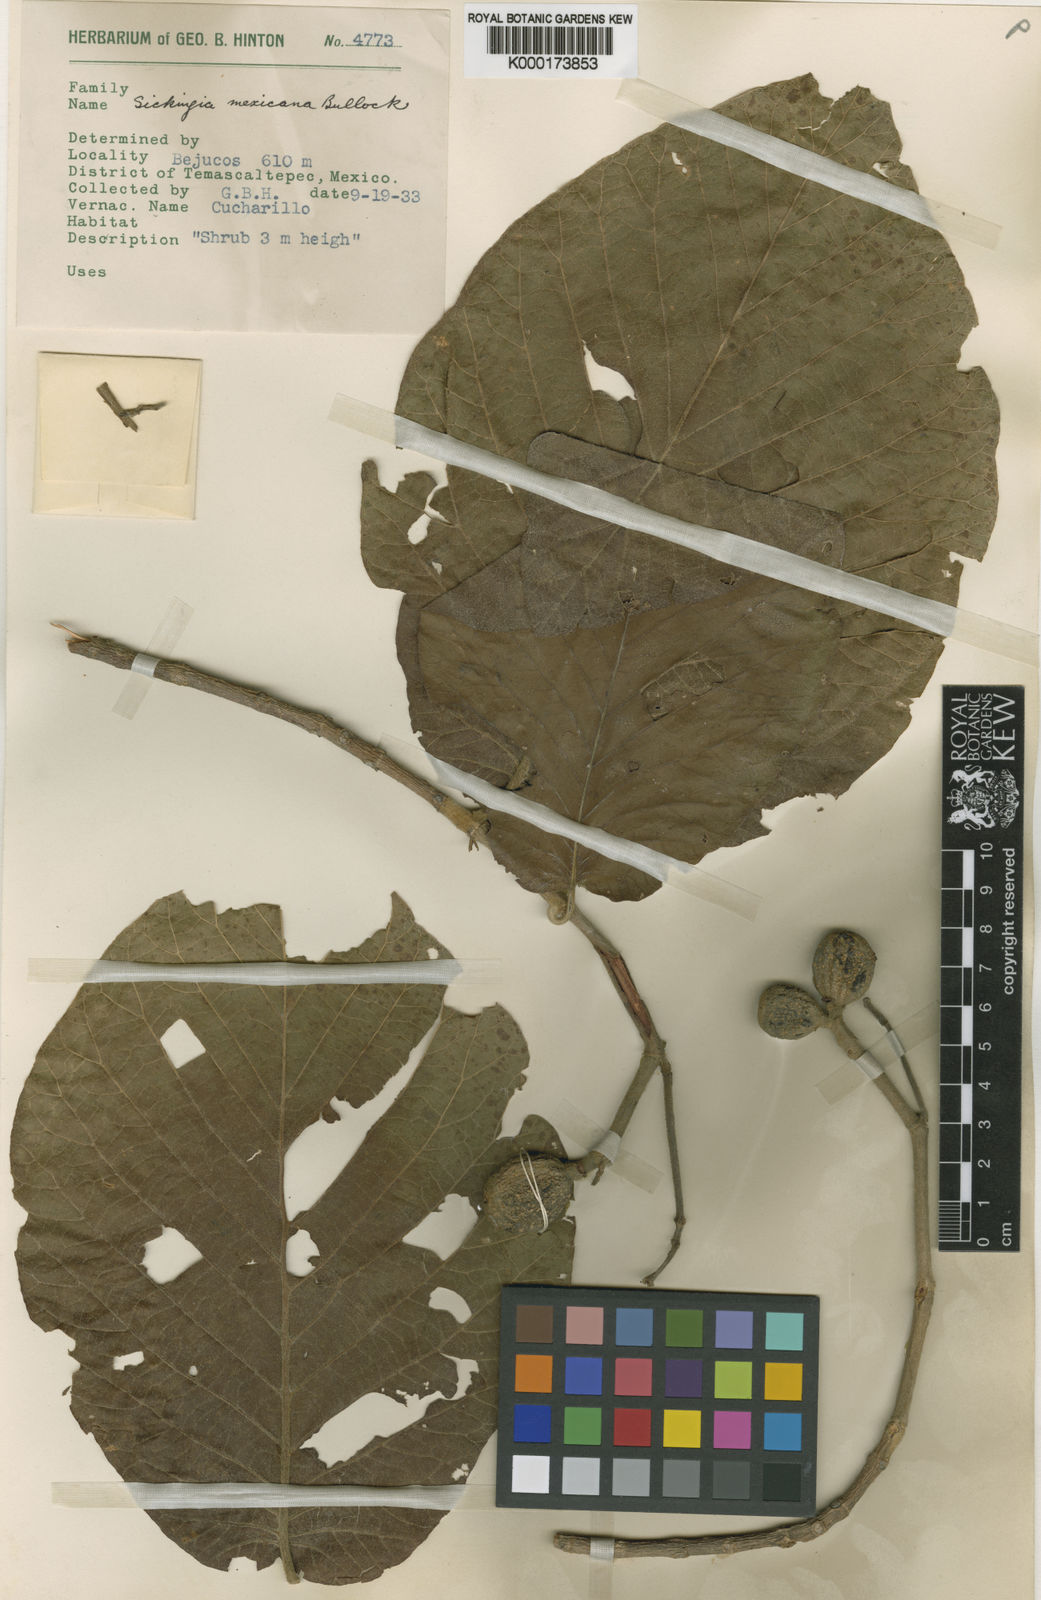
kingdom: Plantae
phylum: Tracheophyta
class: Magnoliopsida
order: Gentianales
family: Rubiaceae
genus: Simira
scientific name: Simira mexicana
